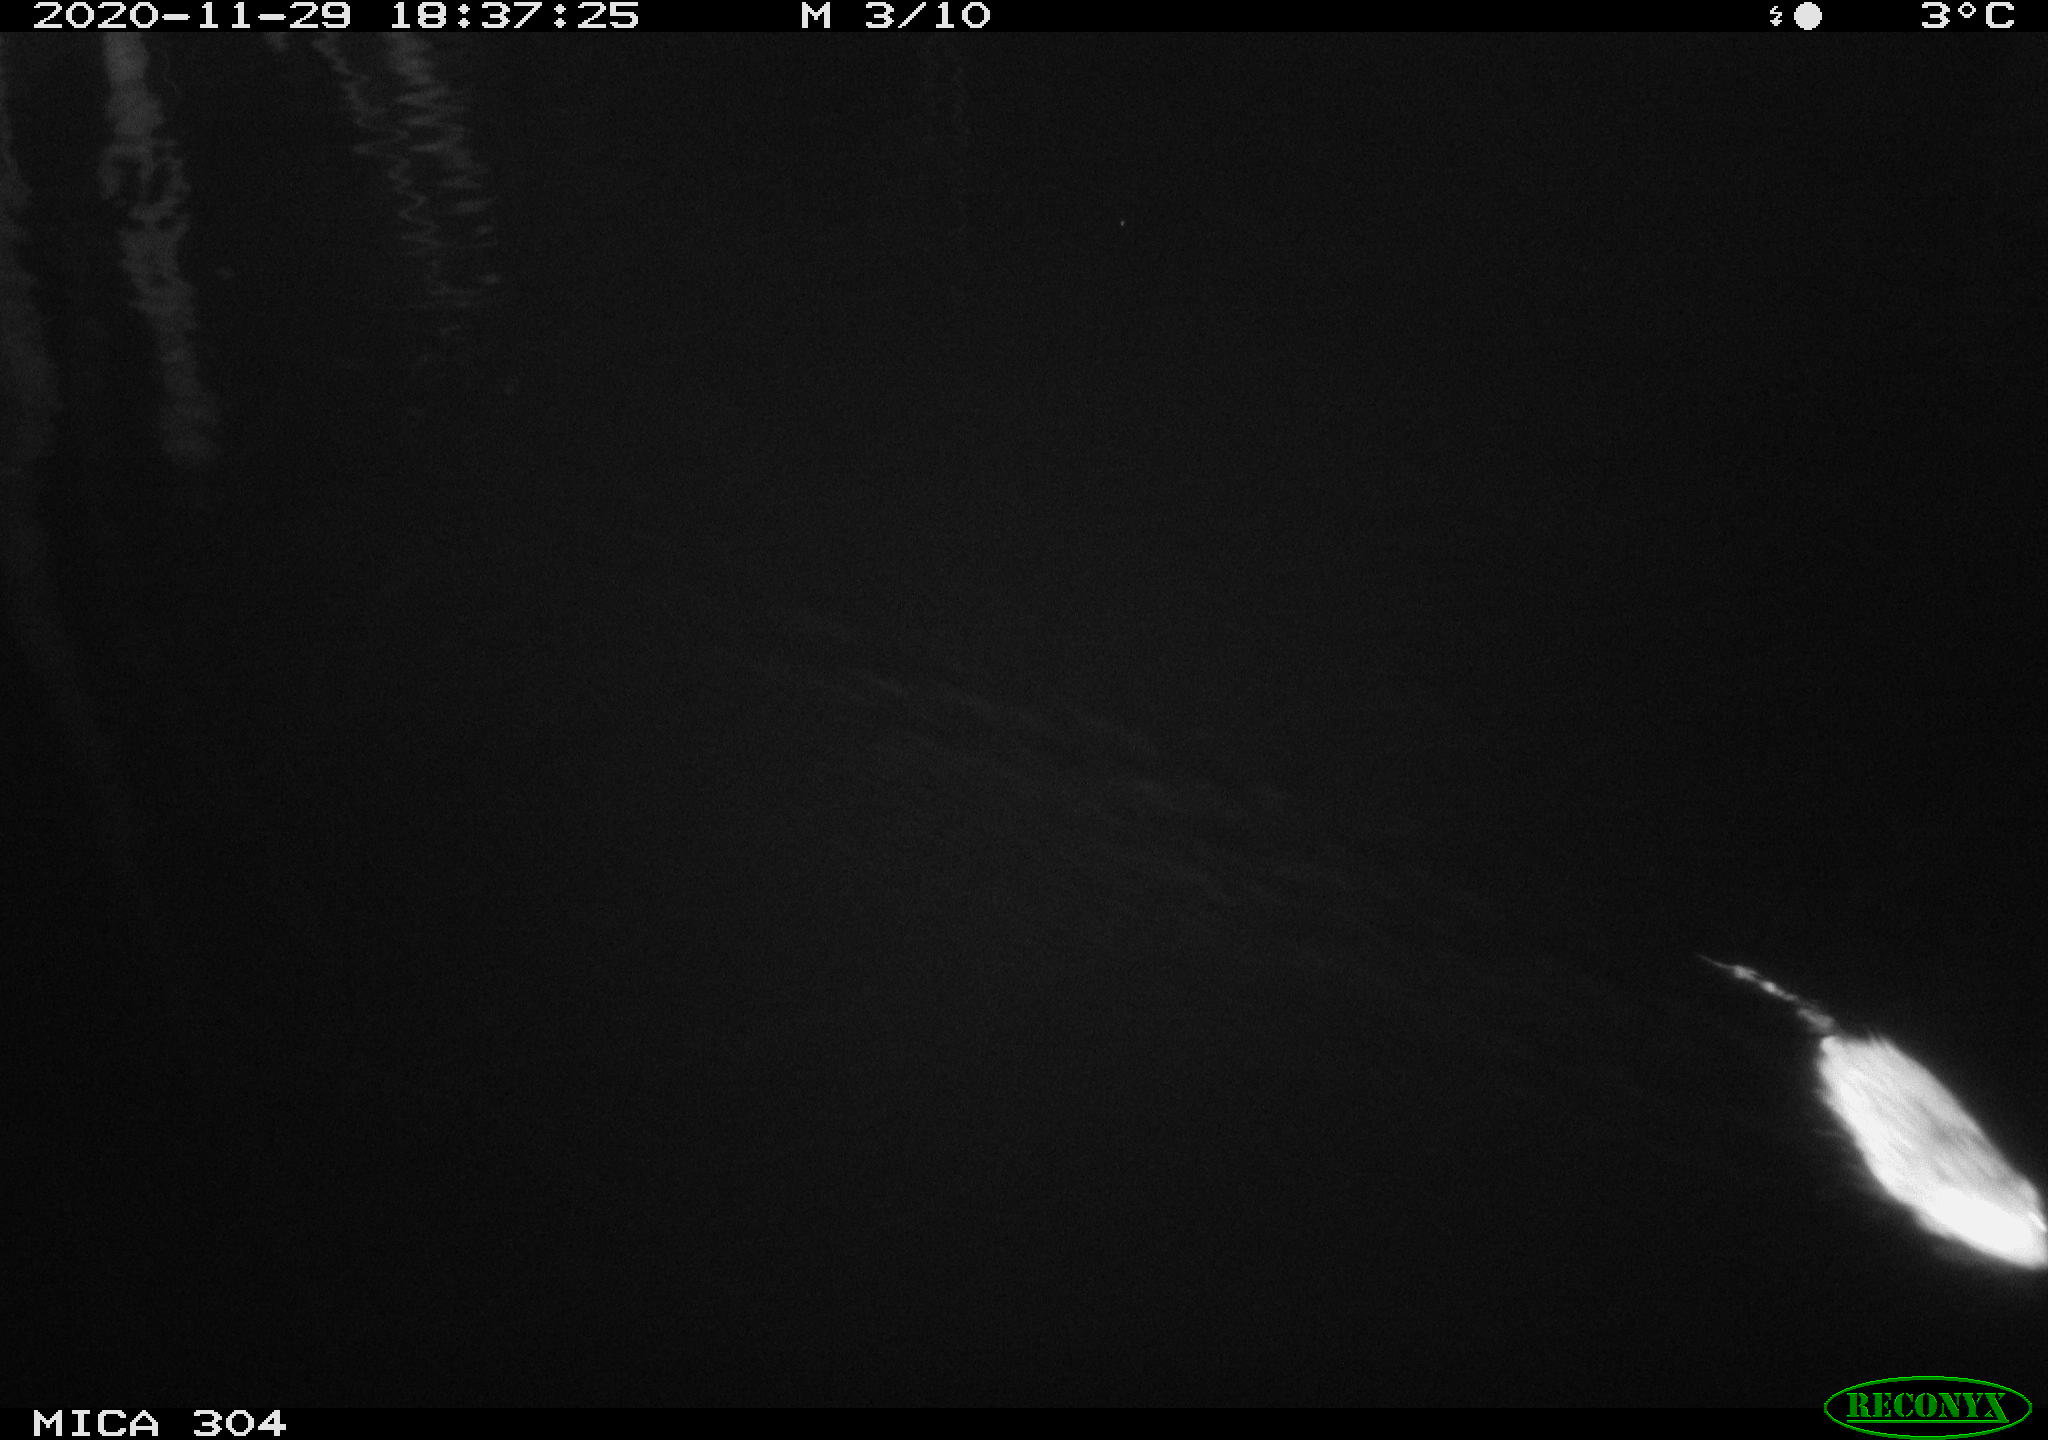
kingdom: Animalia
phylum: Chordata
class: Mammalia
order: Rodentia
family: Muridae
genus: Rattus
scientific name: Rattus norvegicus
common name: Brown rat
